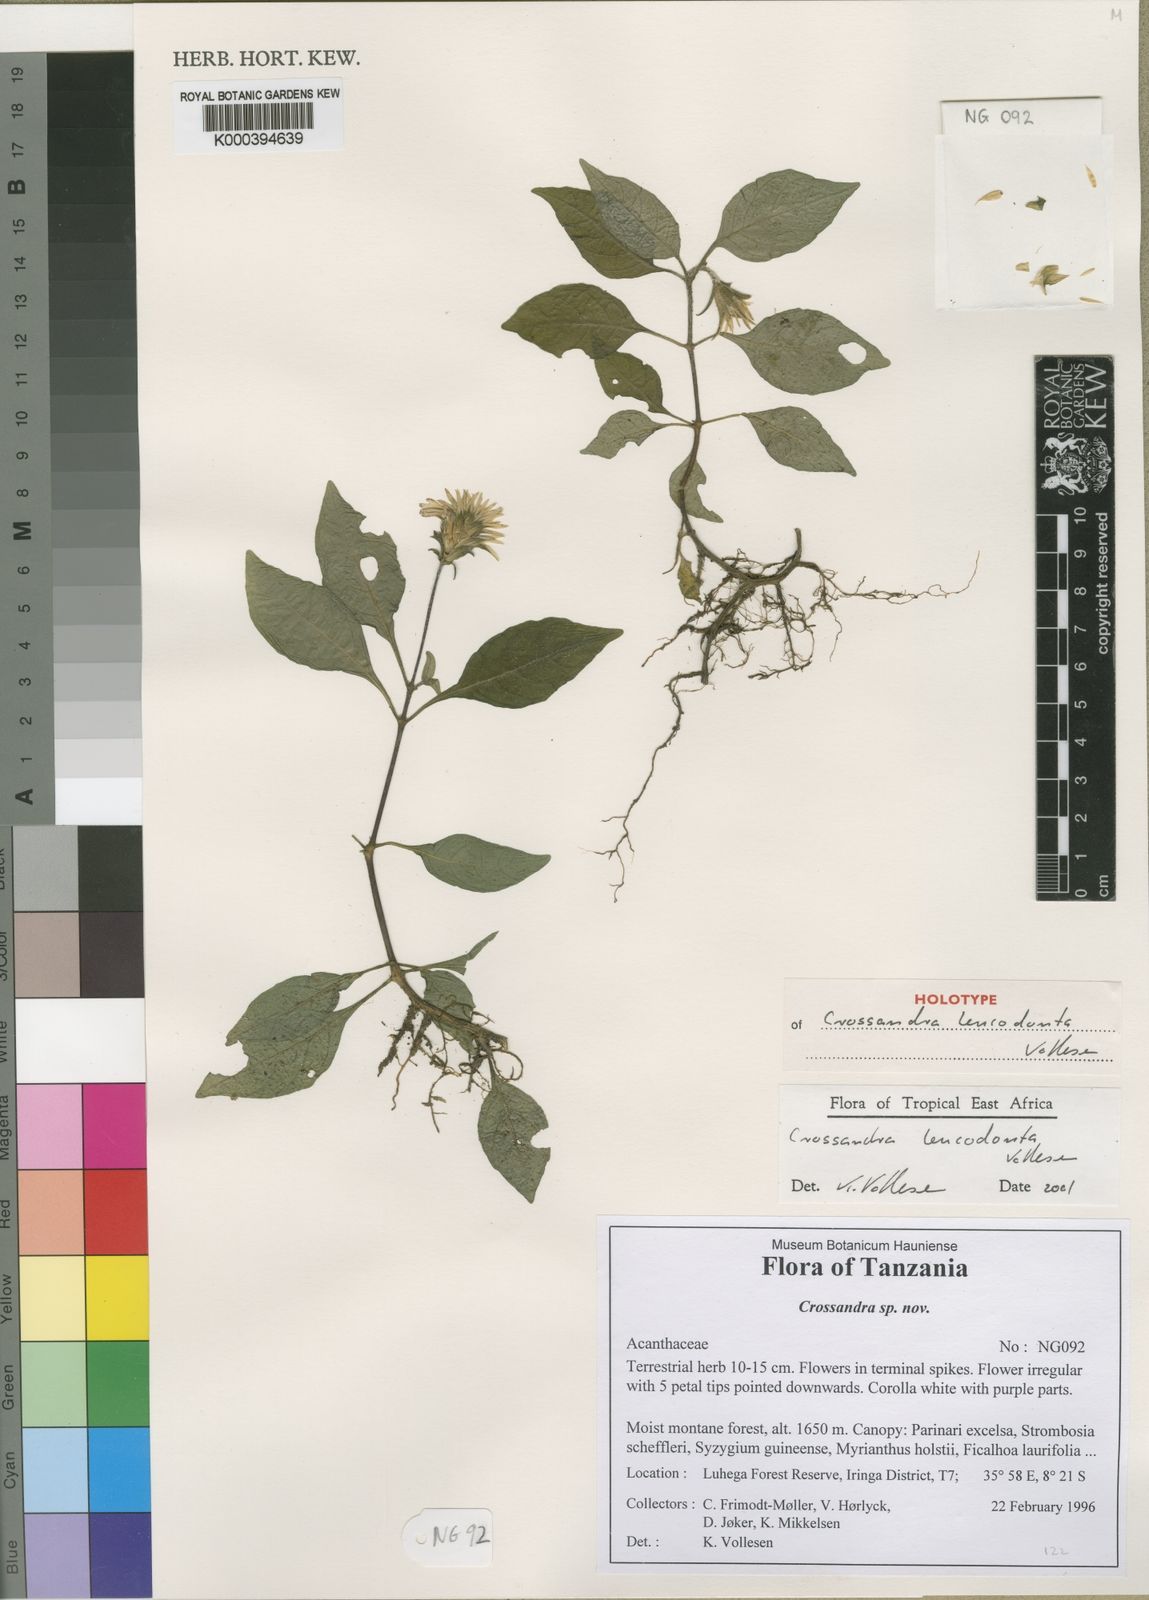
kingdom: Plantae
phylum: Tracheophyta
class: Magnoliopsida
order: Lamiales
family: Acanthaceae
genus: Crossandra
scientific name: Crossandra leucodonta
